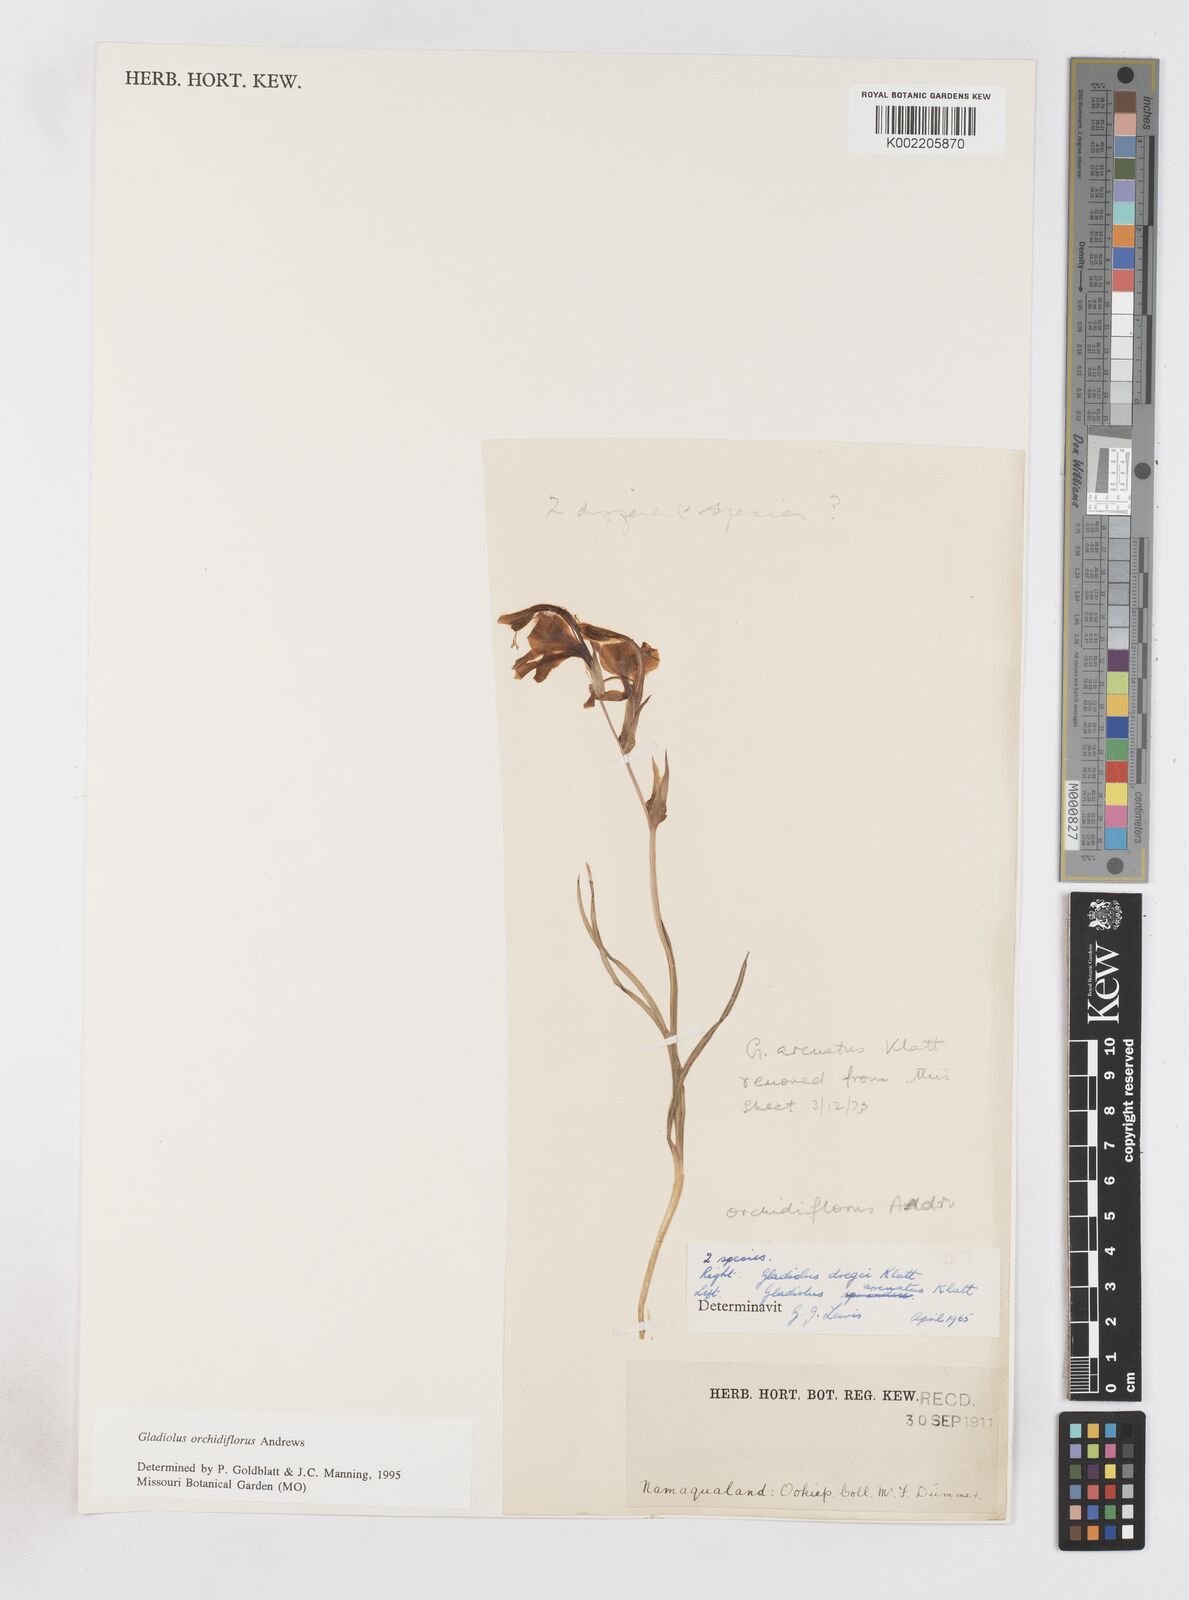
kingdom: Plantae
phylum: Tracheophyta
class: Liliopsida
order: Asparagales
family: Iridaceae
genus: Gladiolus
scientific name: Gladiolus orchidiflorus
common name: Gray kalkoentjie
